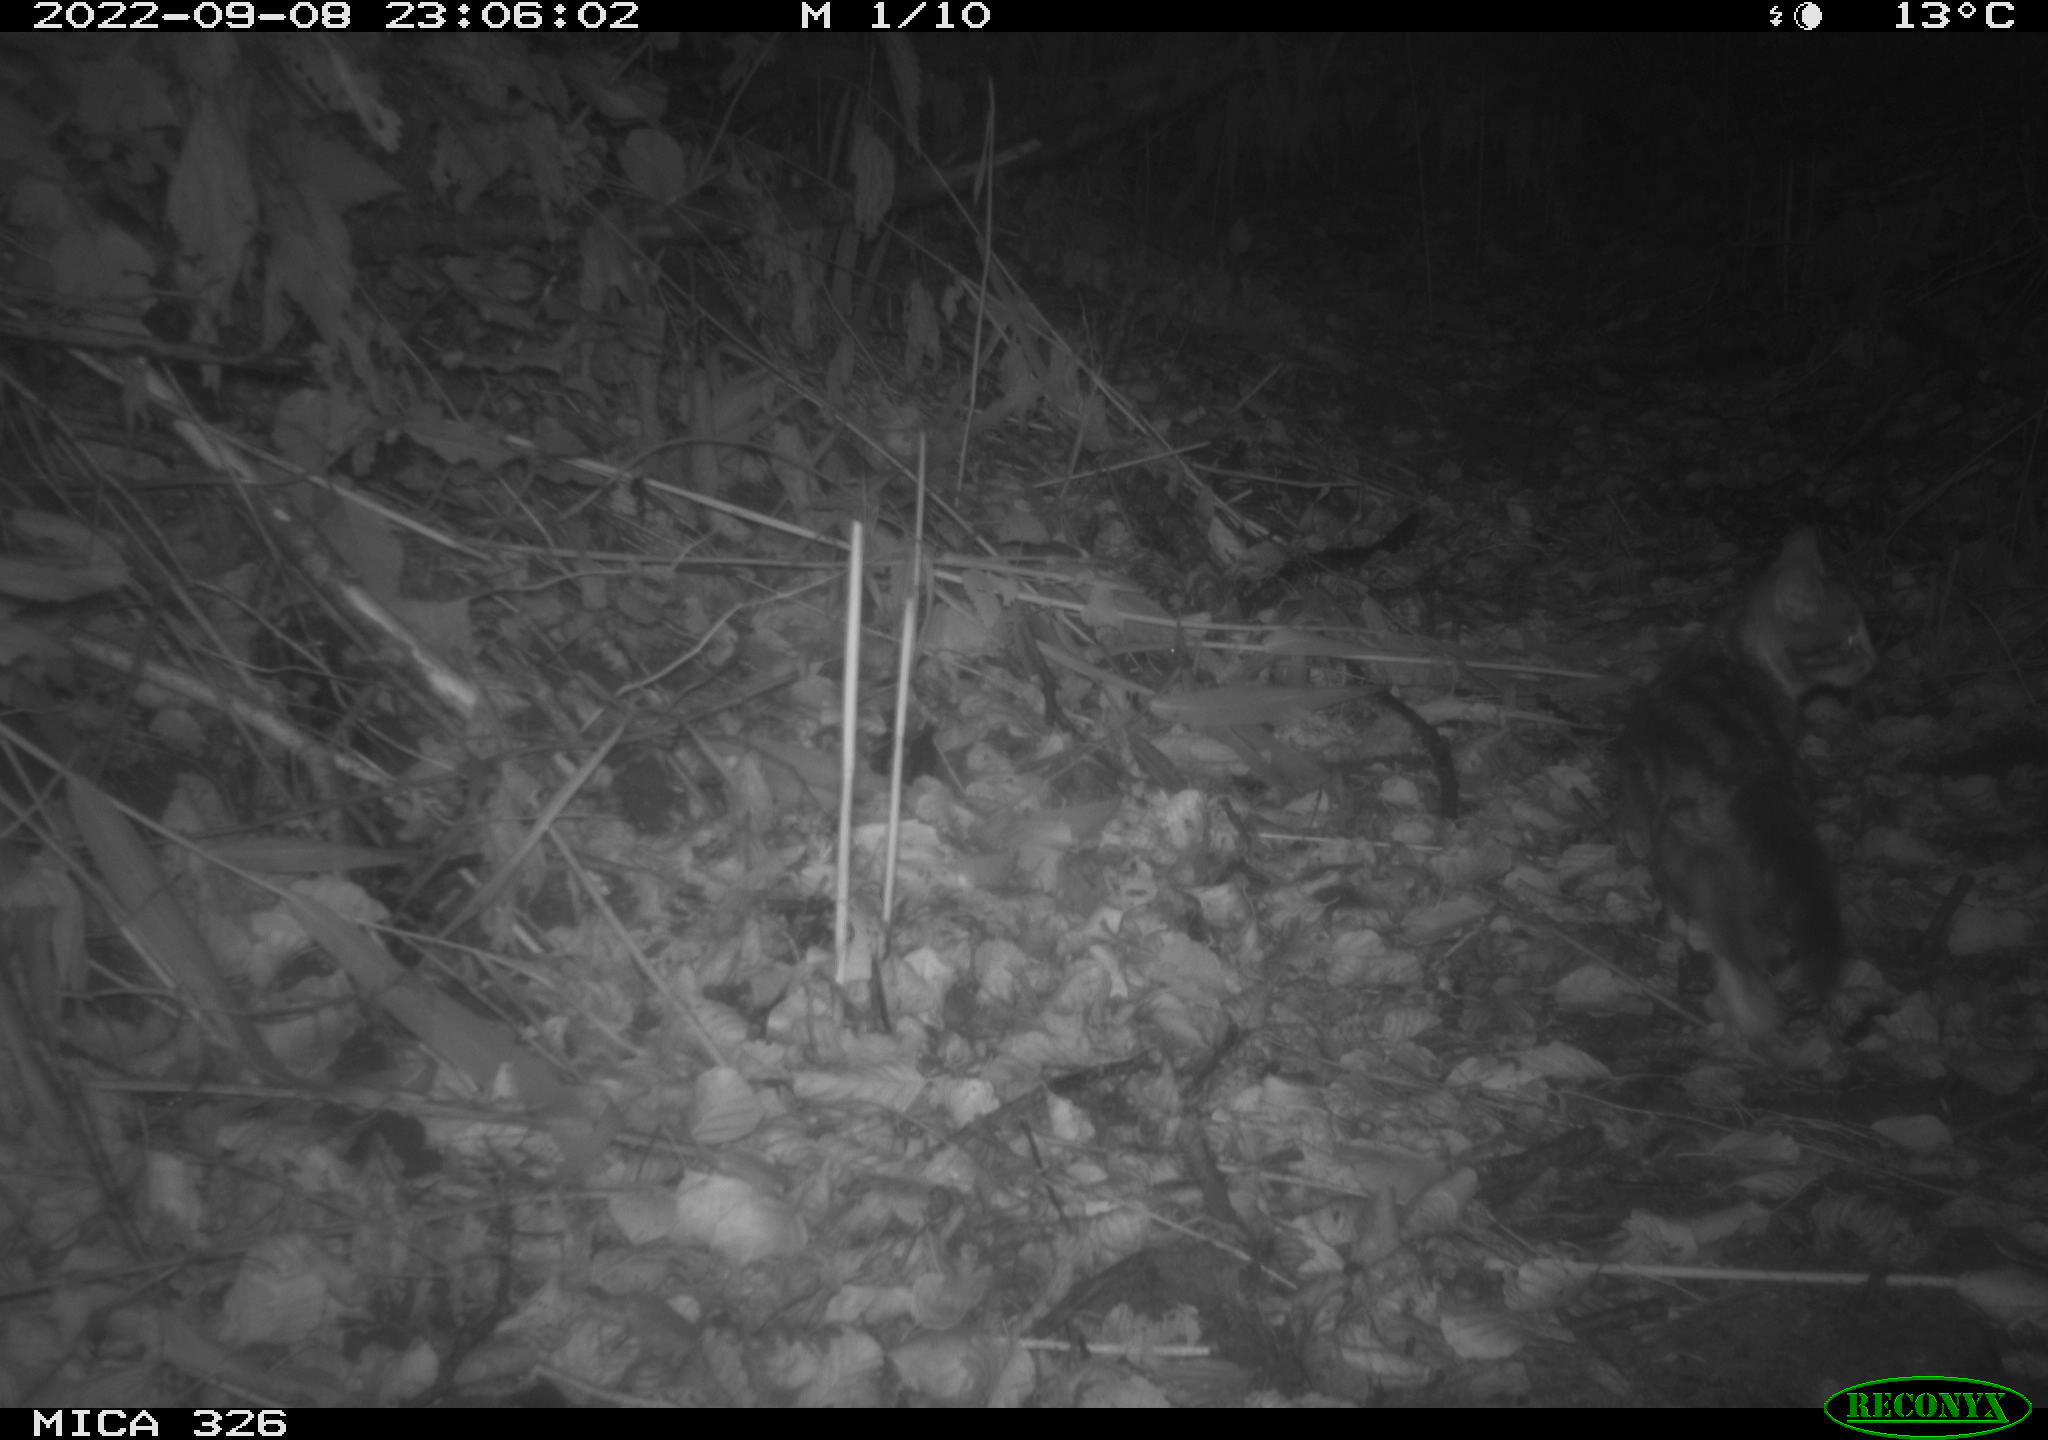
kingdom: Animalia
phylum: Chordata
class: Mammalia
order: Carnivora
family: Felidae
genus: Felis
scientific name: Felis catus
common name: Domestic cat
